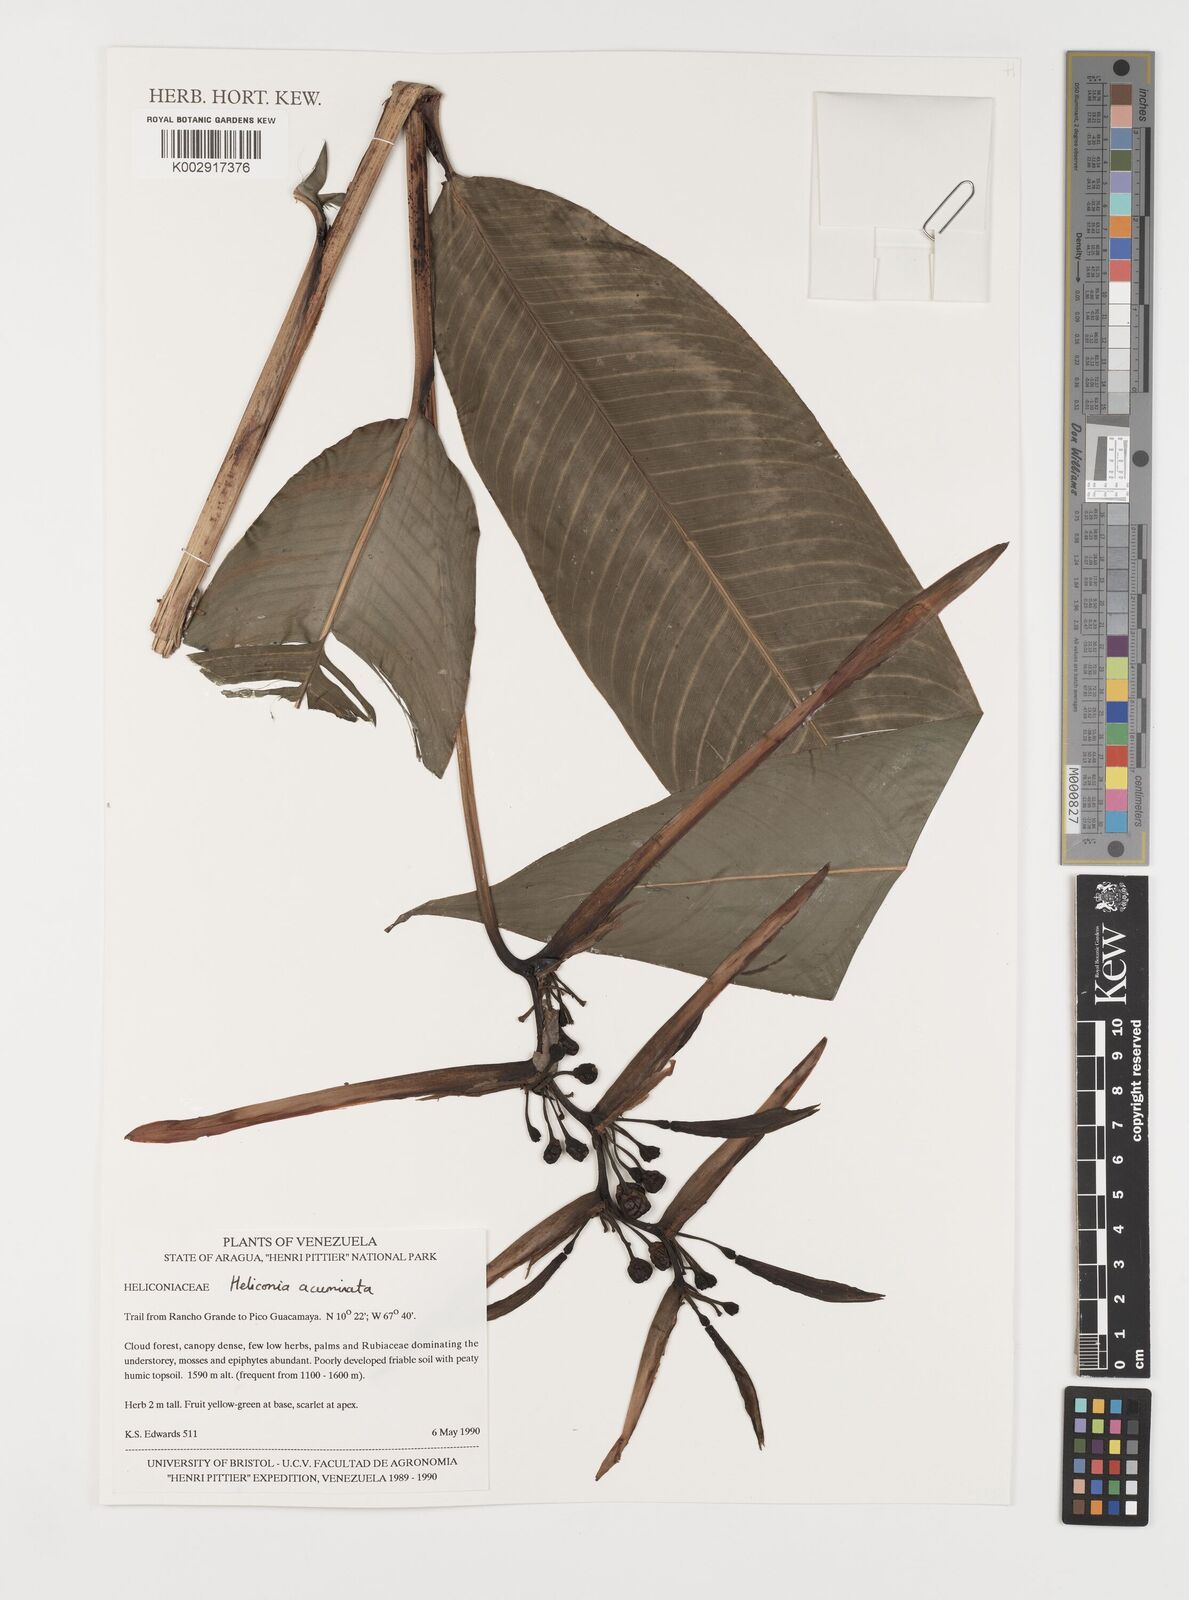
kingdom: Plantae
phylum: Tracheophyta
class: Liliopsida
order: Zingiberales
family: Heliconiaceae
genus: Heliconia
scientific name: Heliconia acuminata
